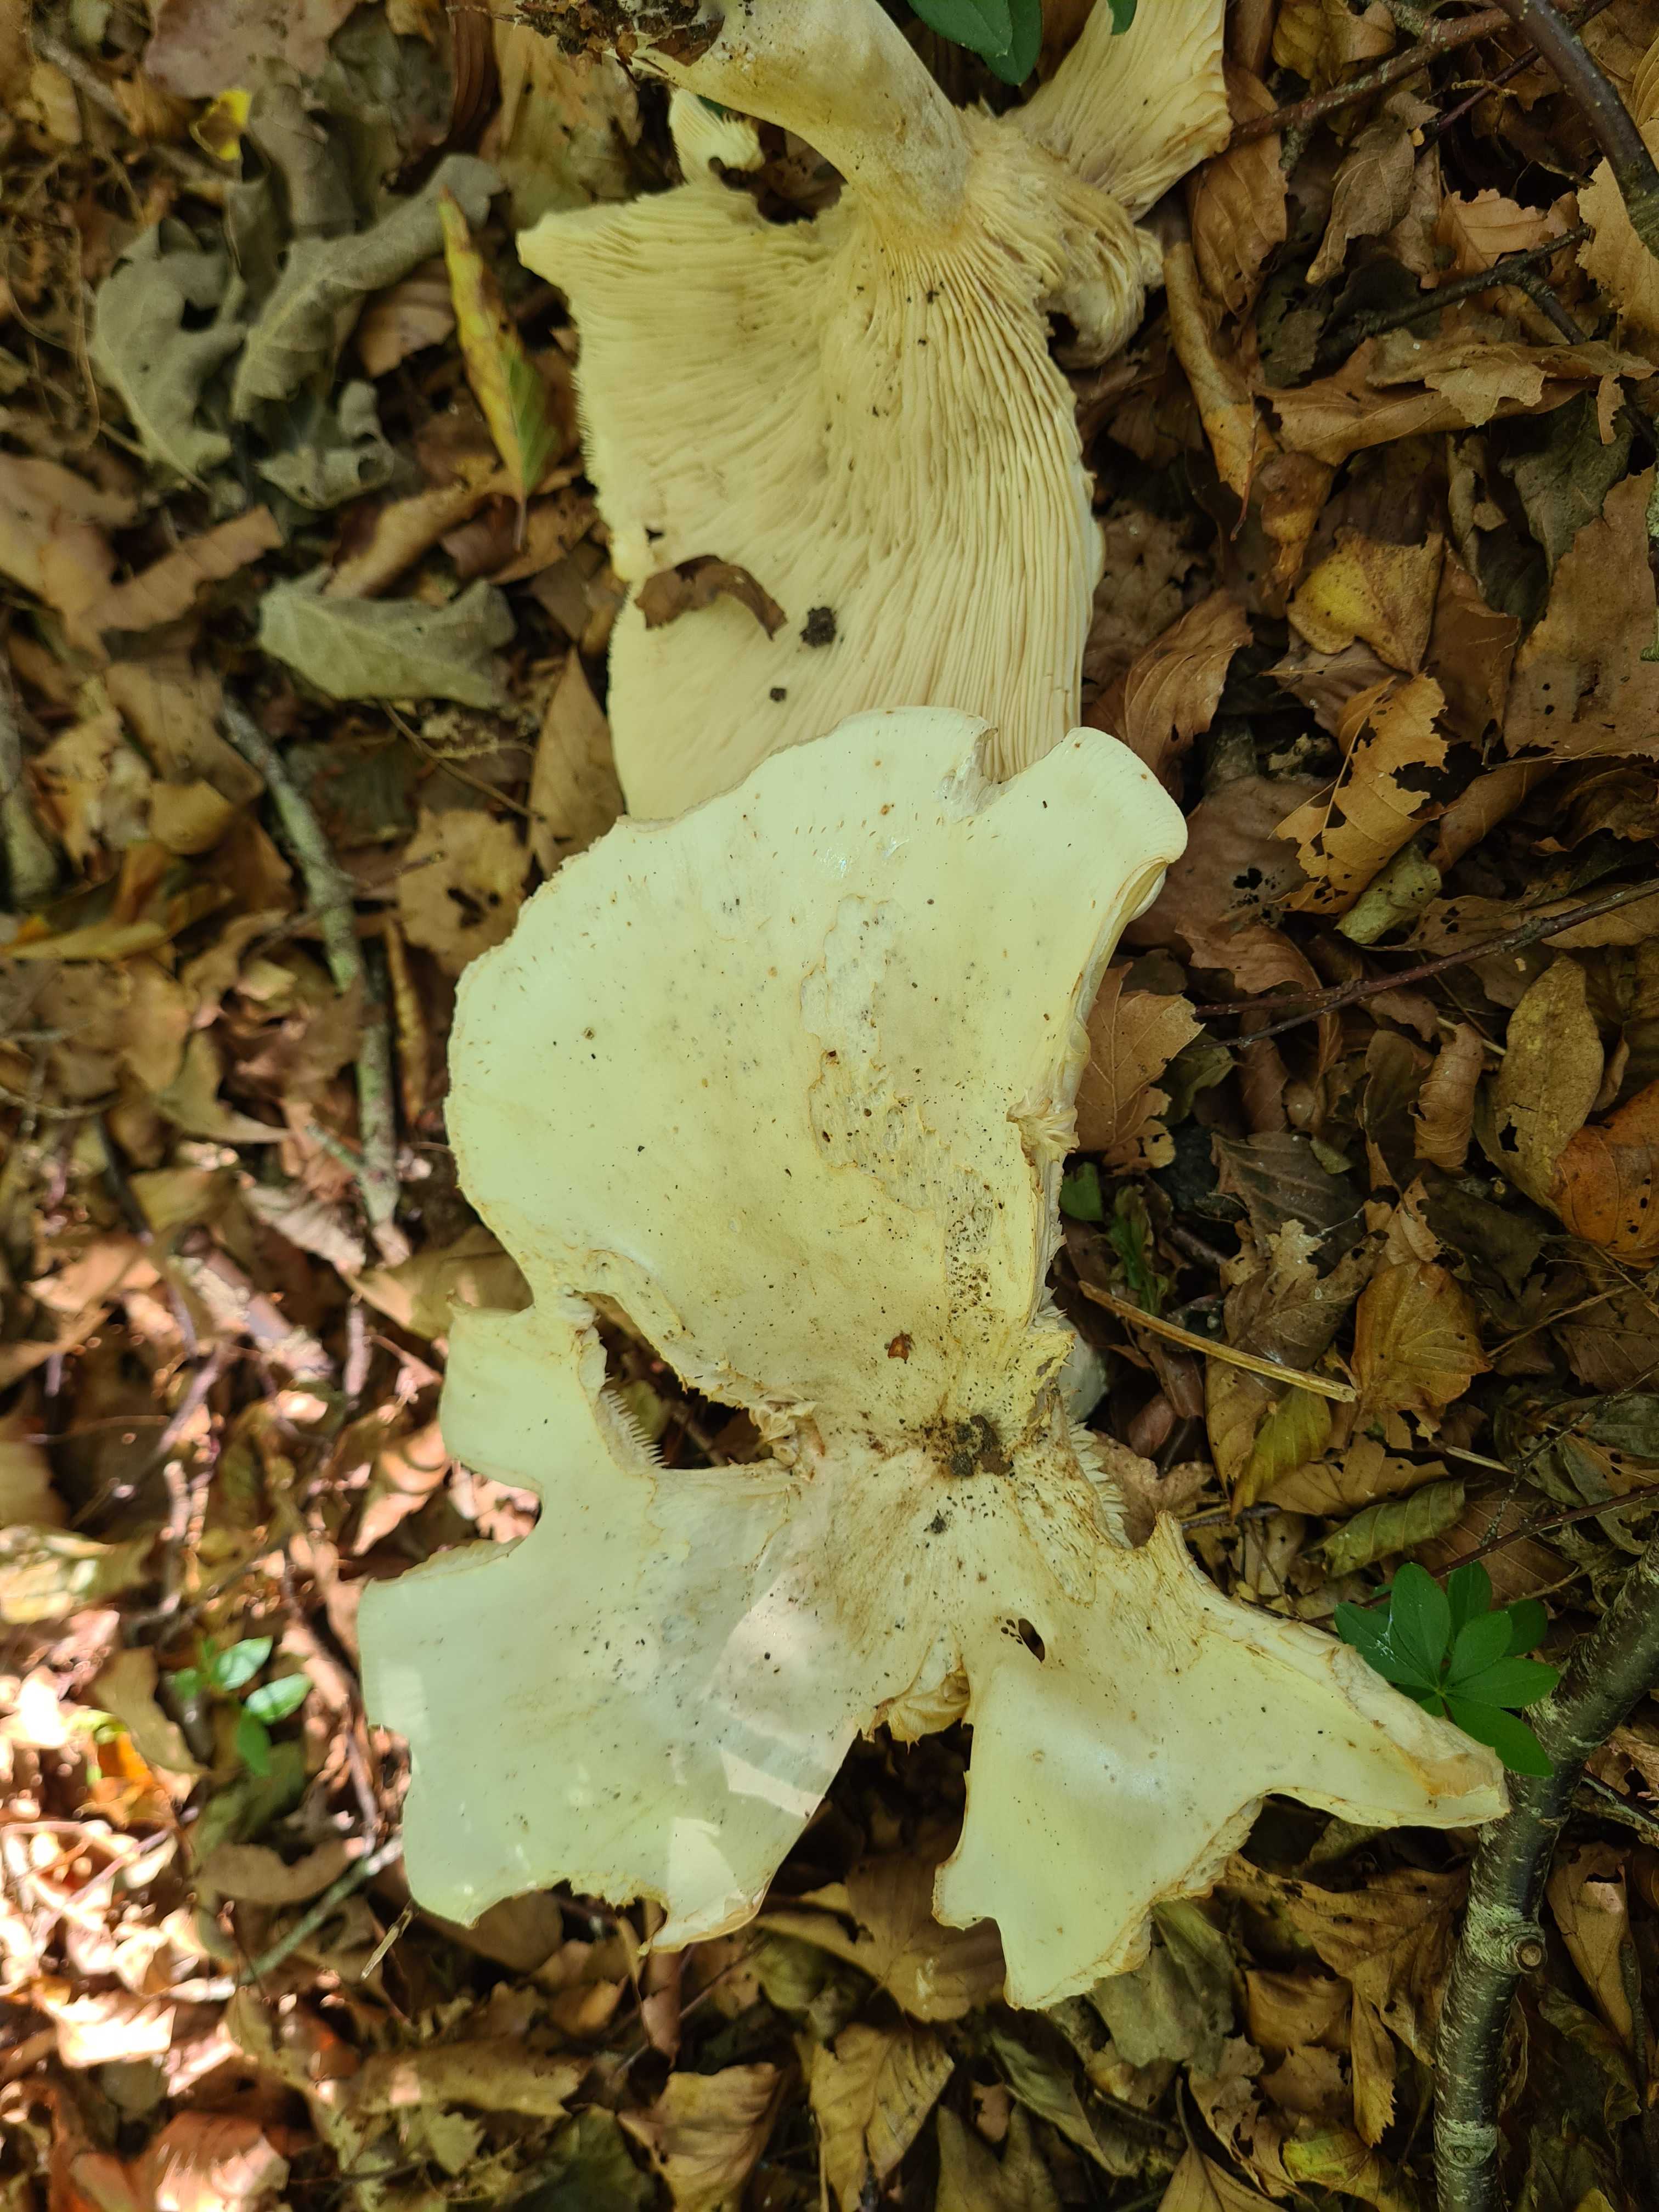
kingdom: Fungi
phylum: Basidiomycota
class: Agaricomycetes
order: Agaricales
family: Tricholomataceae
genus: Aspropaxillus
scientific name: Aspropaxillus giganteus
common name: kæmpe-tragtridderhat
